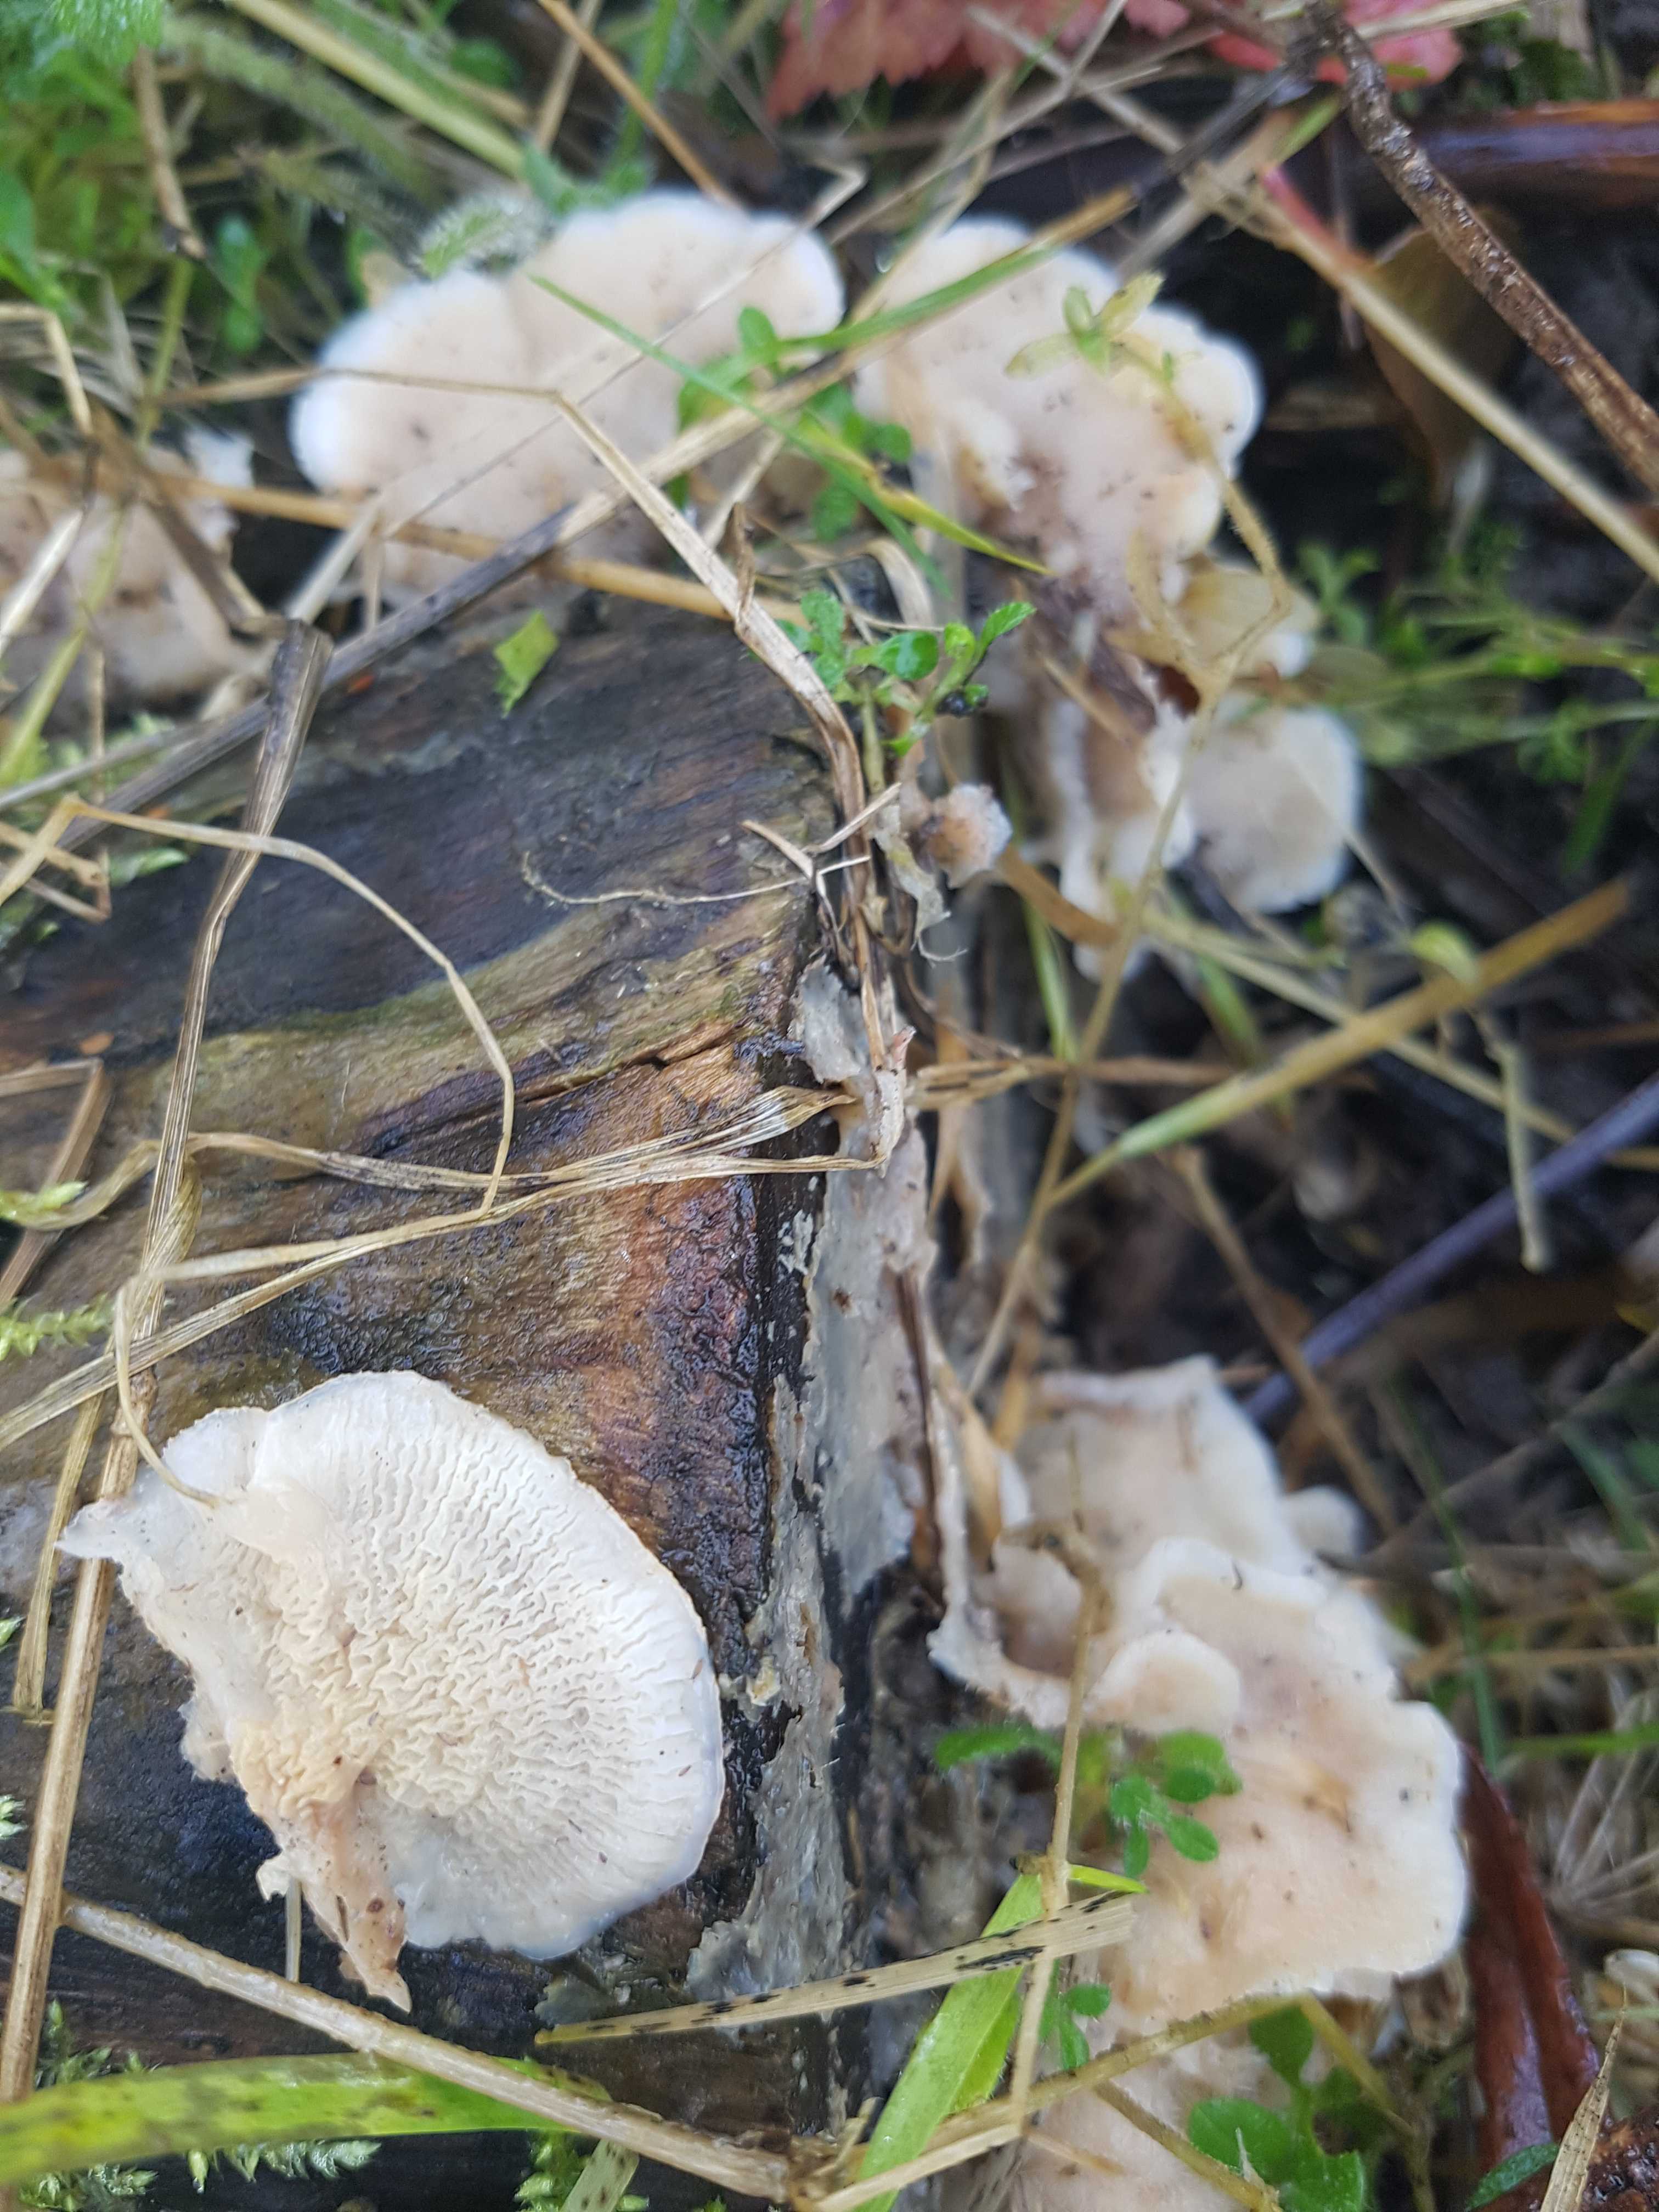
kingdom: Fungi
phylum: Basidiomycota
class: Agaricomycetes
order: Polyporales
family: Meruliaceae
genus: Phlebia
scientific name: Phlebia tremellosa
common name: bævrende åresvamp
